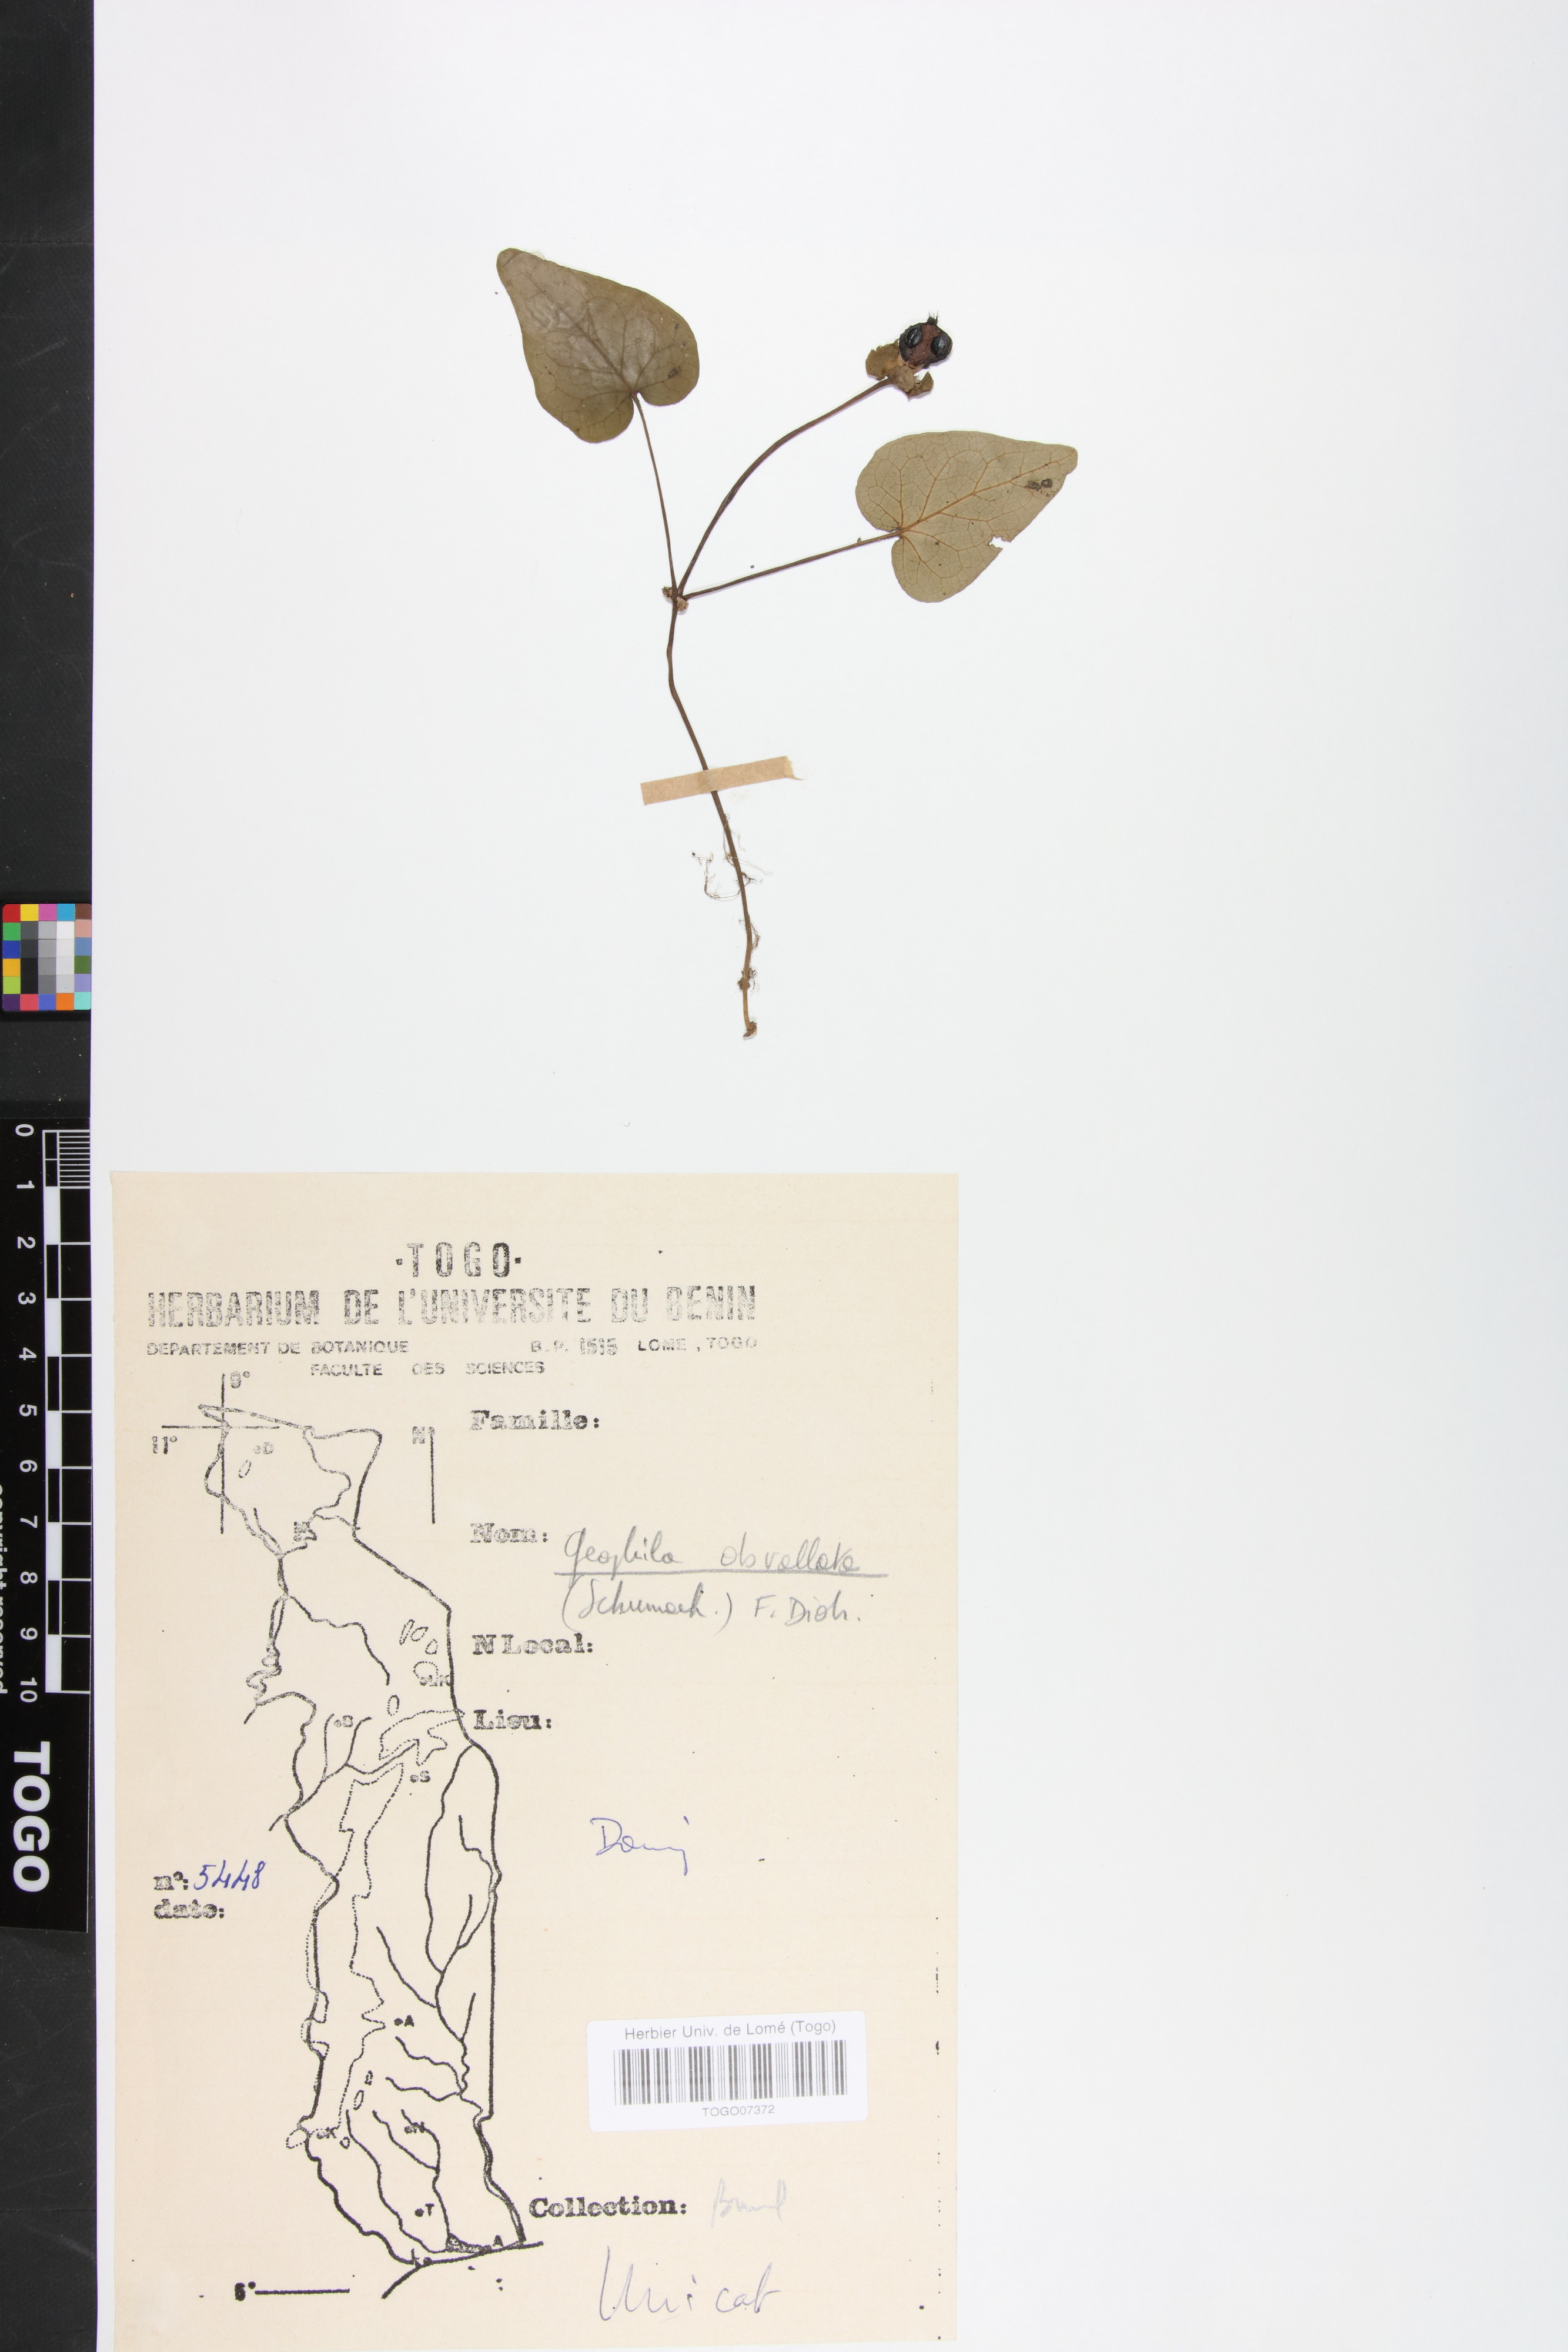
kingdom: Plantae
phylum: Tracheophyta
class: Magnoliopsida
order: Gentianales
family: Rubiaceae
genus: Geophila
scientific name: Geophila obvallata
